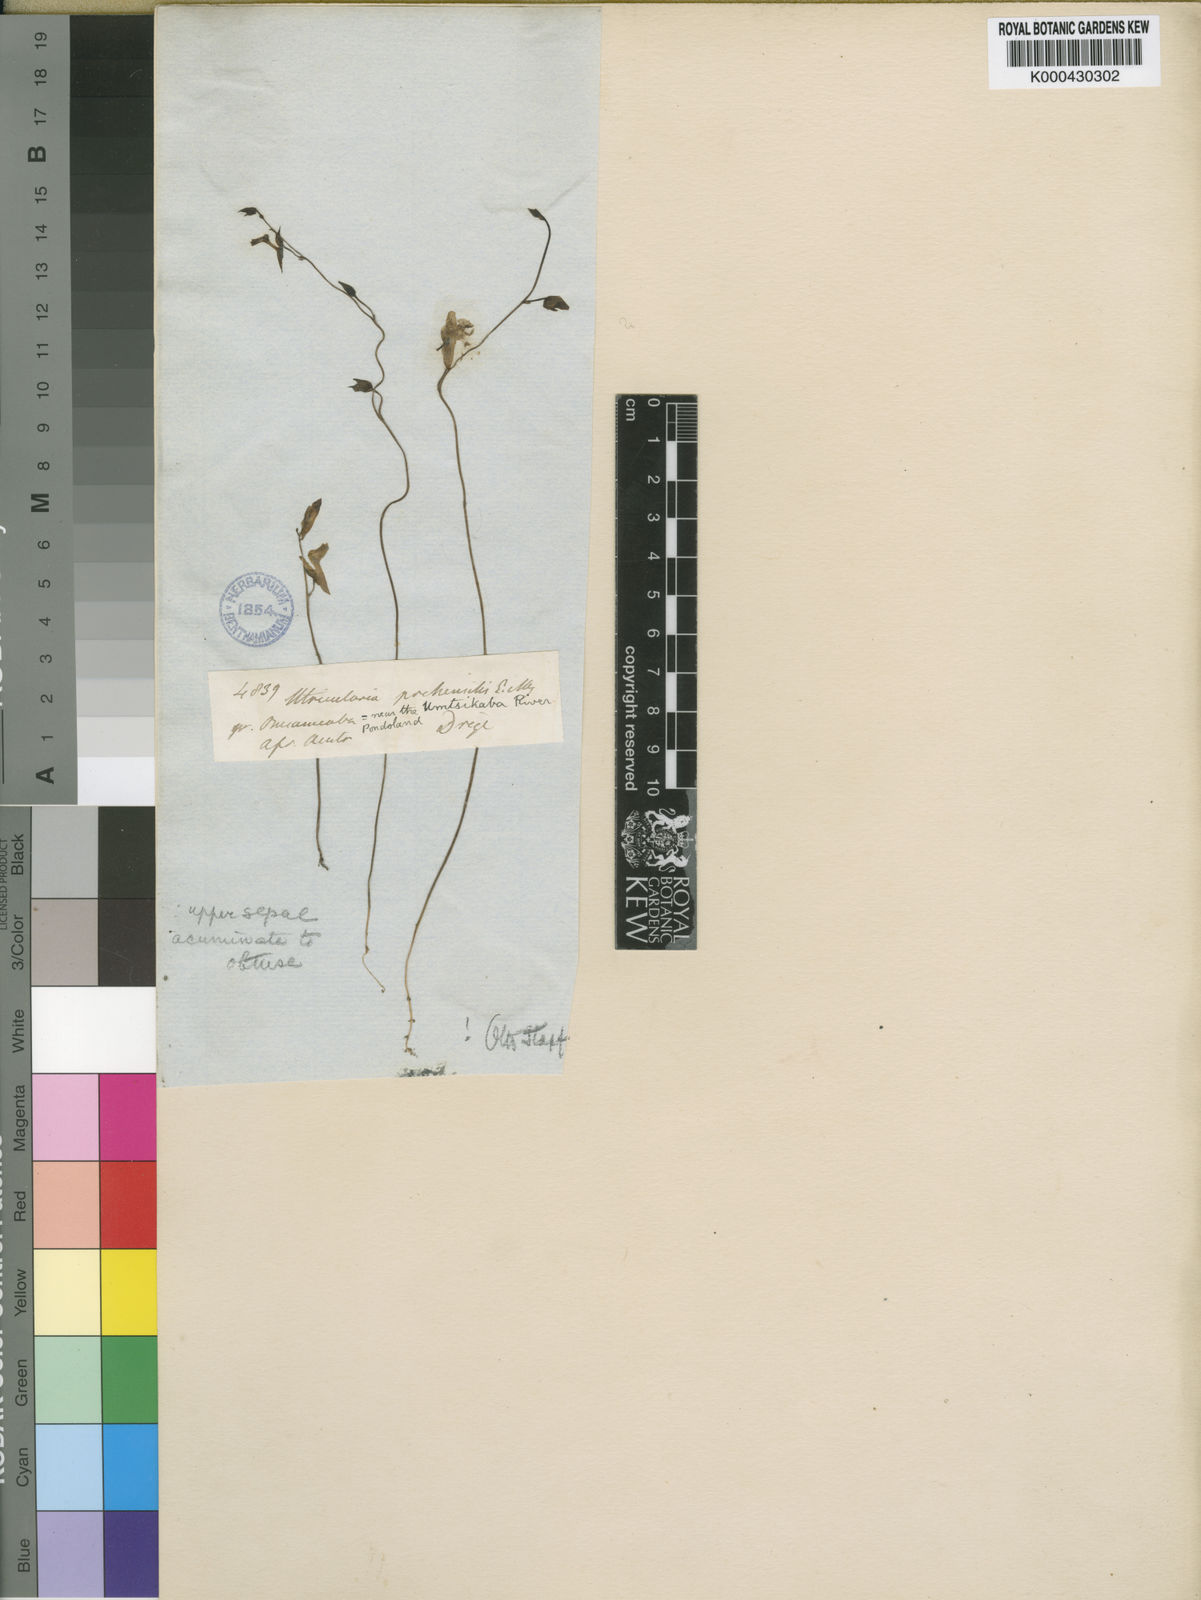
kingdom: Plantae
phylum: Tracheophyta
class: Magnoliopsida
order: Lamiales
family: Lentibulariaceae
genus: Utricularia
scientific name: Utricularia prehensilis
